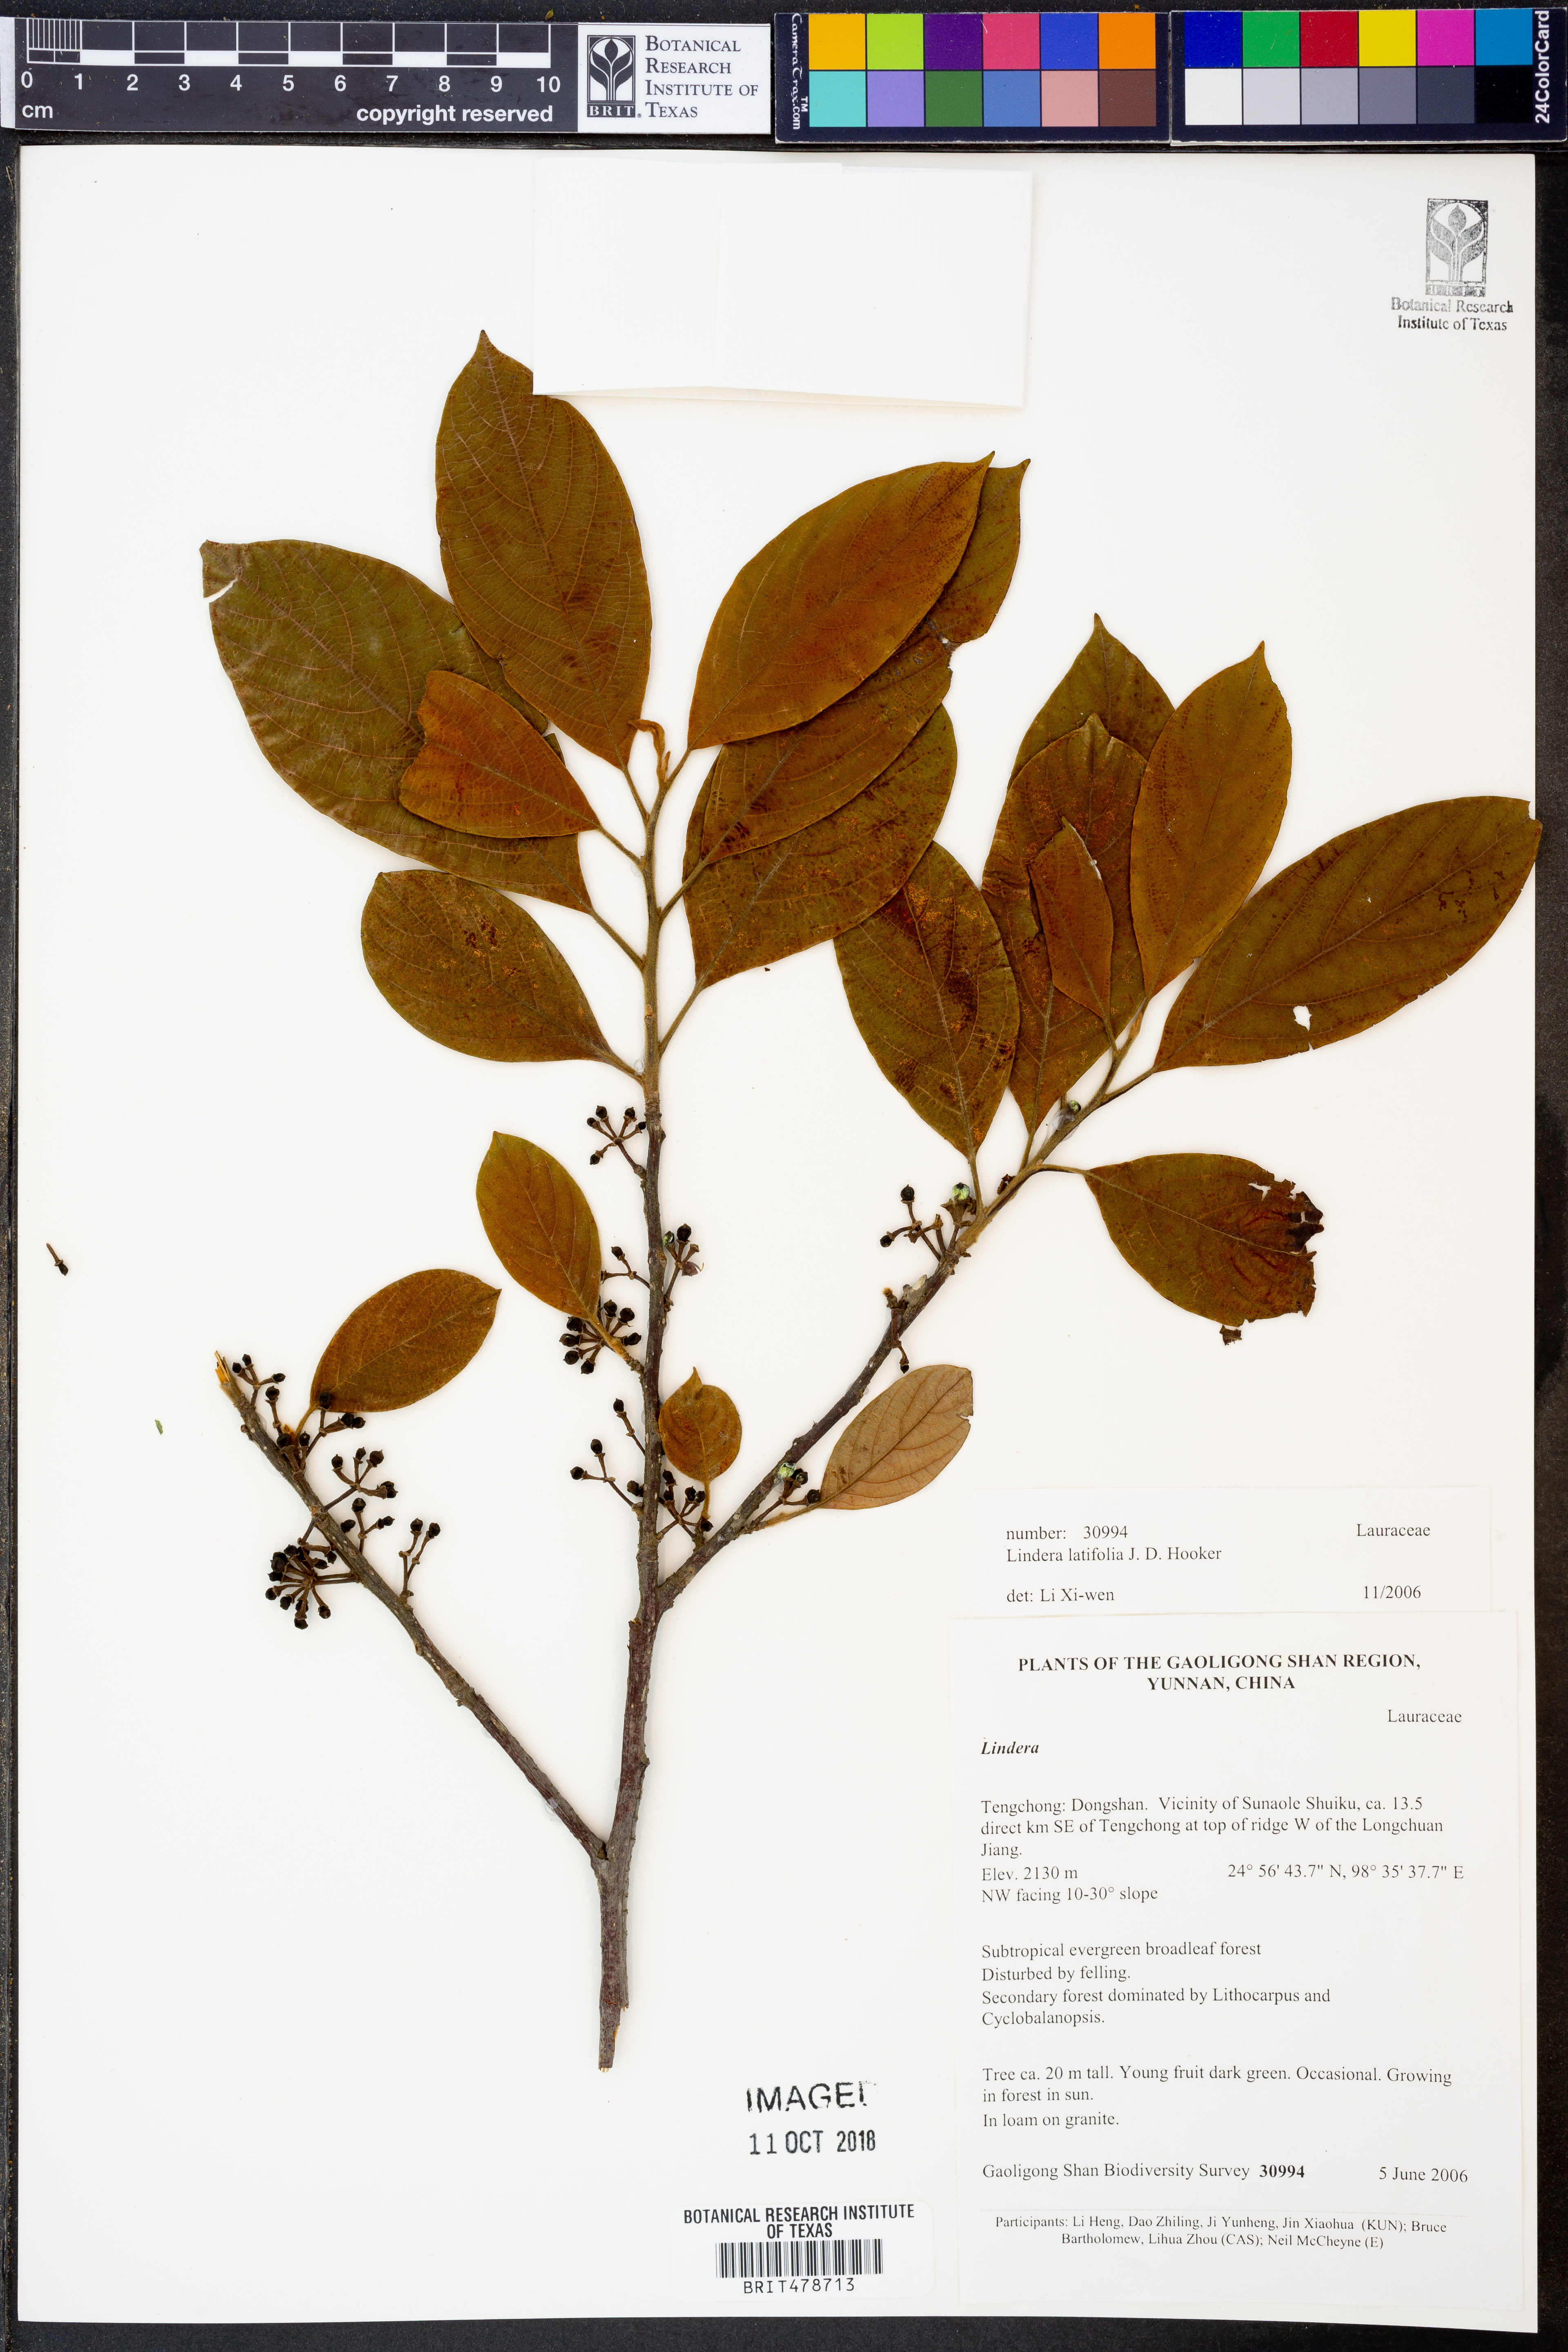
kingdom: Plantae
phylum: Tracheophyta
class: Magnoliopsida
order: Laurales
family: Lauraceae
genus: Lindera
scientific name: Lindera latifolia
